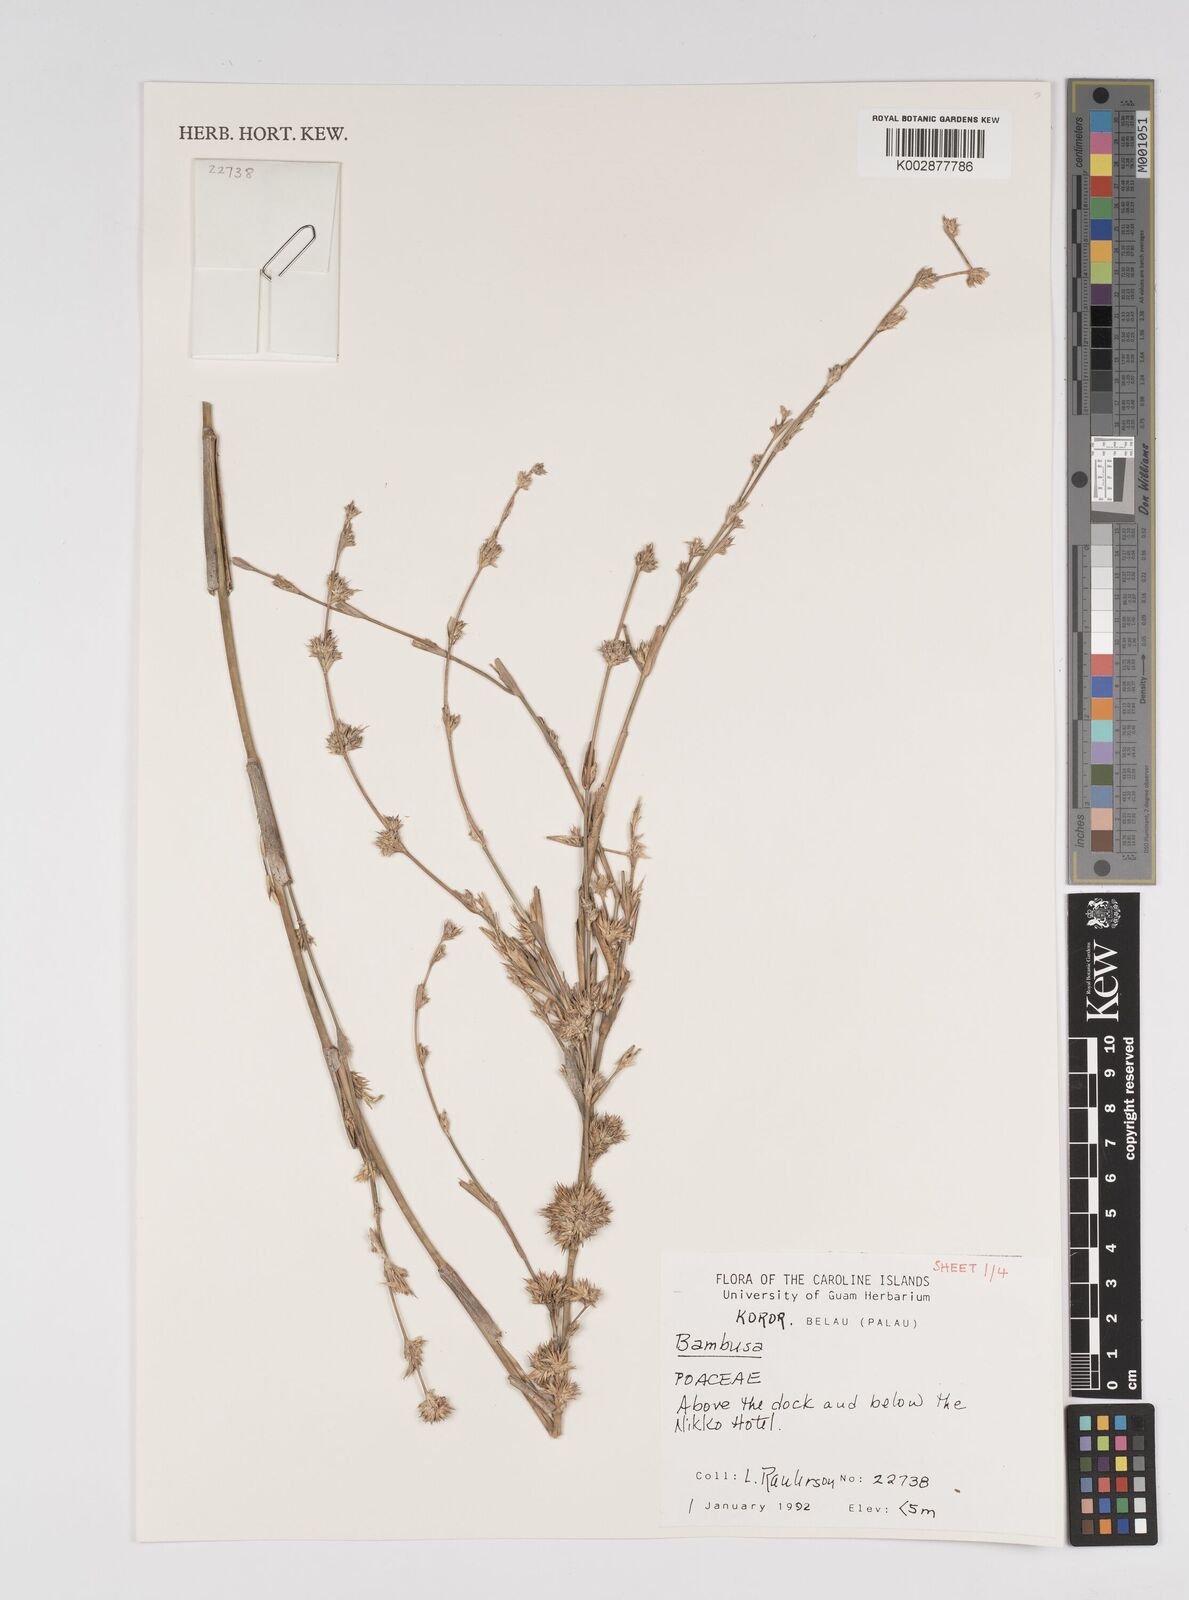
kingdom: Plantae
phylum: Tracheophyta
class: Liliopsida
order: Poales
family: Poaceae
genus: Bambusa
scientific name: Bambusa
